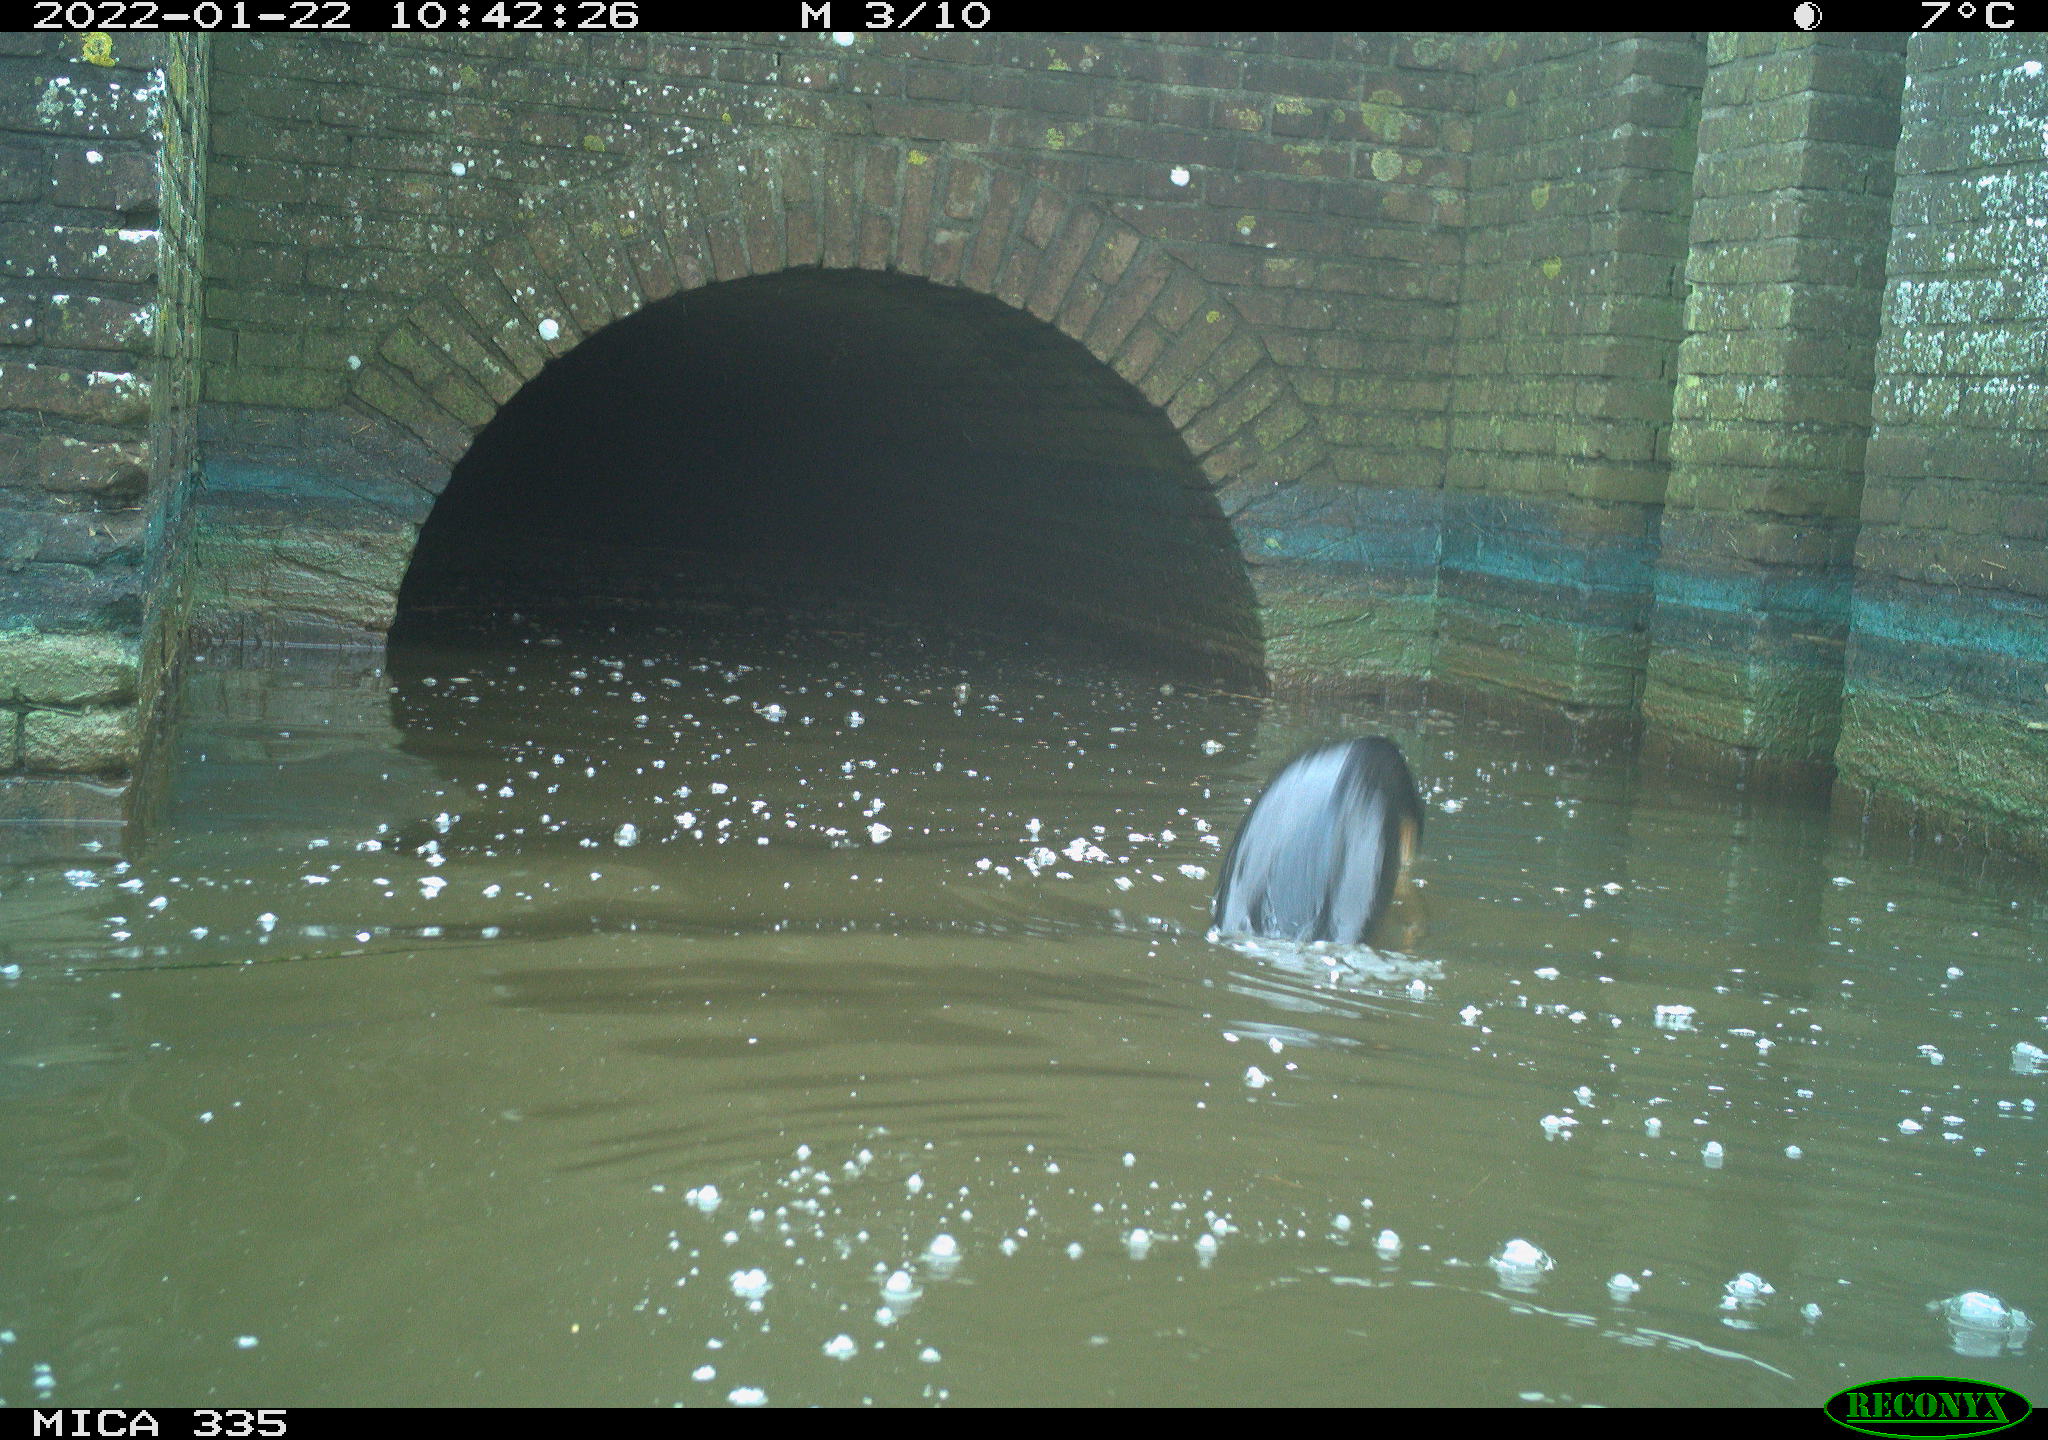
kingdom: Animalia
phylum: Chordata
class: Aves
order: Suliformes
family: Phalacrocoracidae
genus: Phalacrocorax
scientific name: Phalacrocorax carbo
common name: Great cormorant
